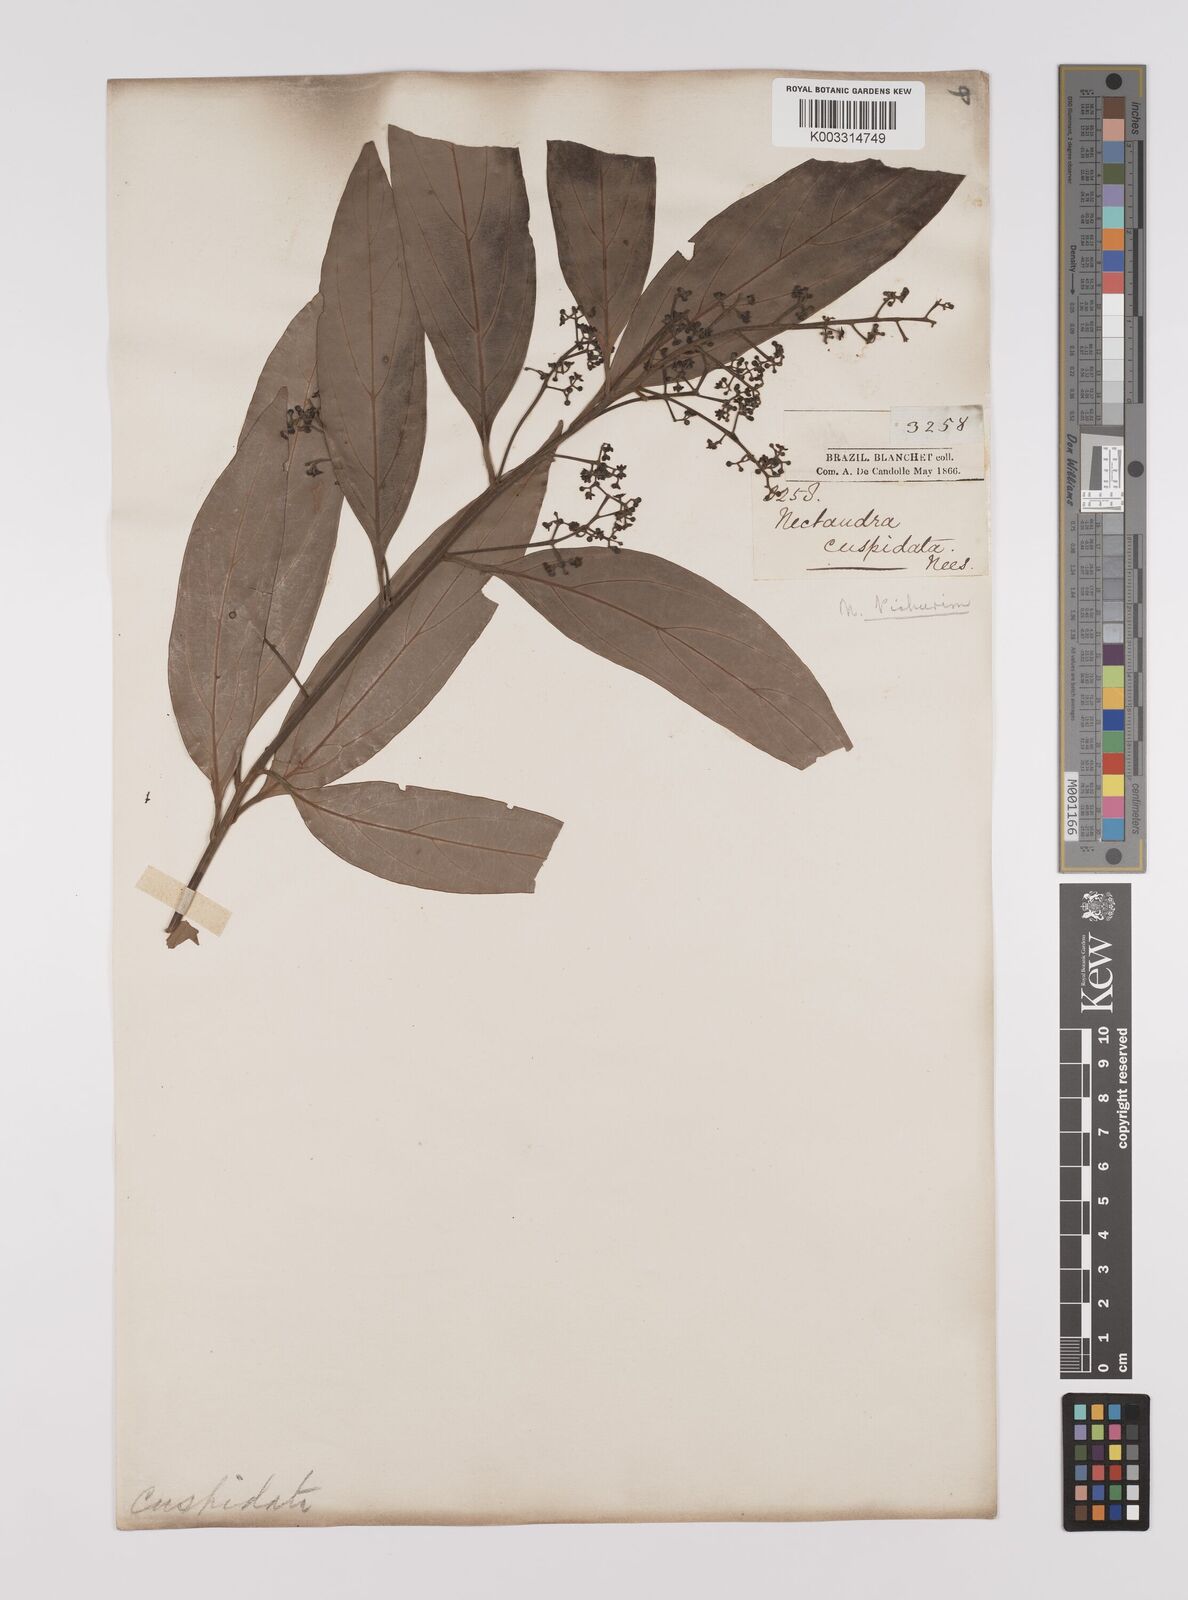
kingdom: Plantae
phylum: Tracheophyta
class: Magnoliopsida
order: Laurales
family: Lauraceae
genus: Nectandra
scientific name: Nectandra cuspidata
